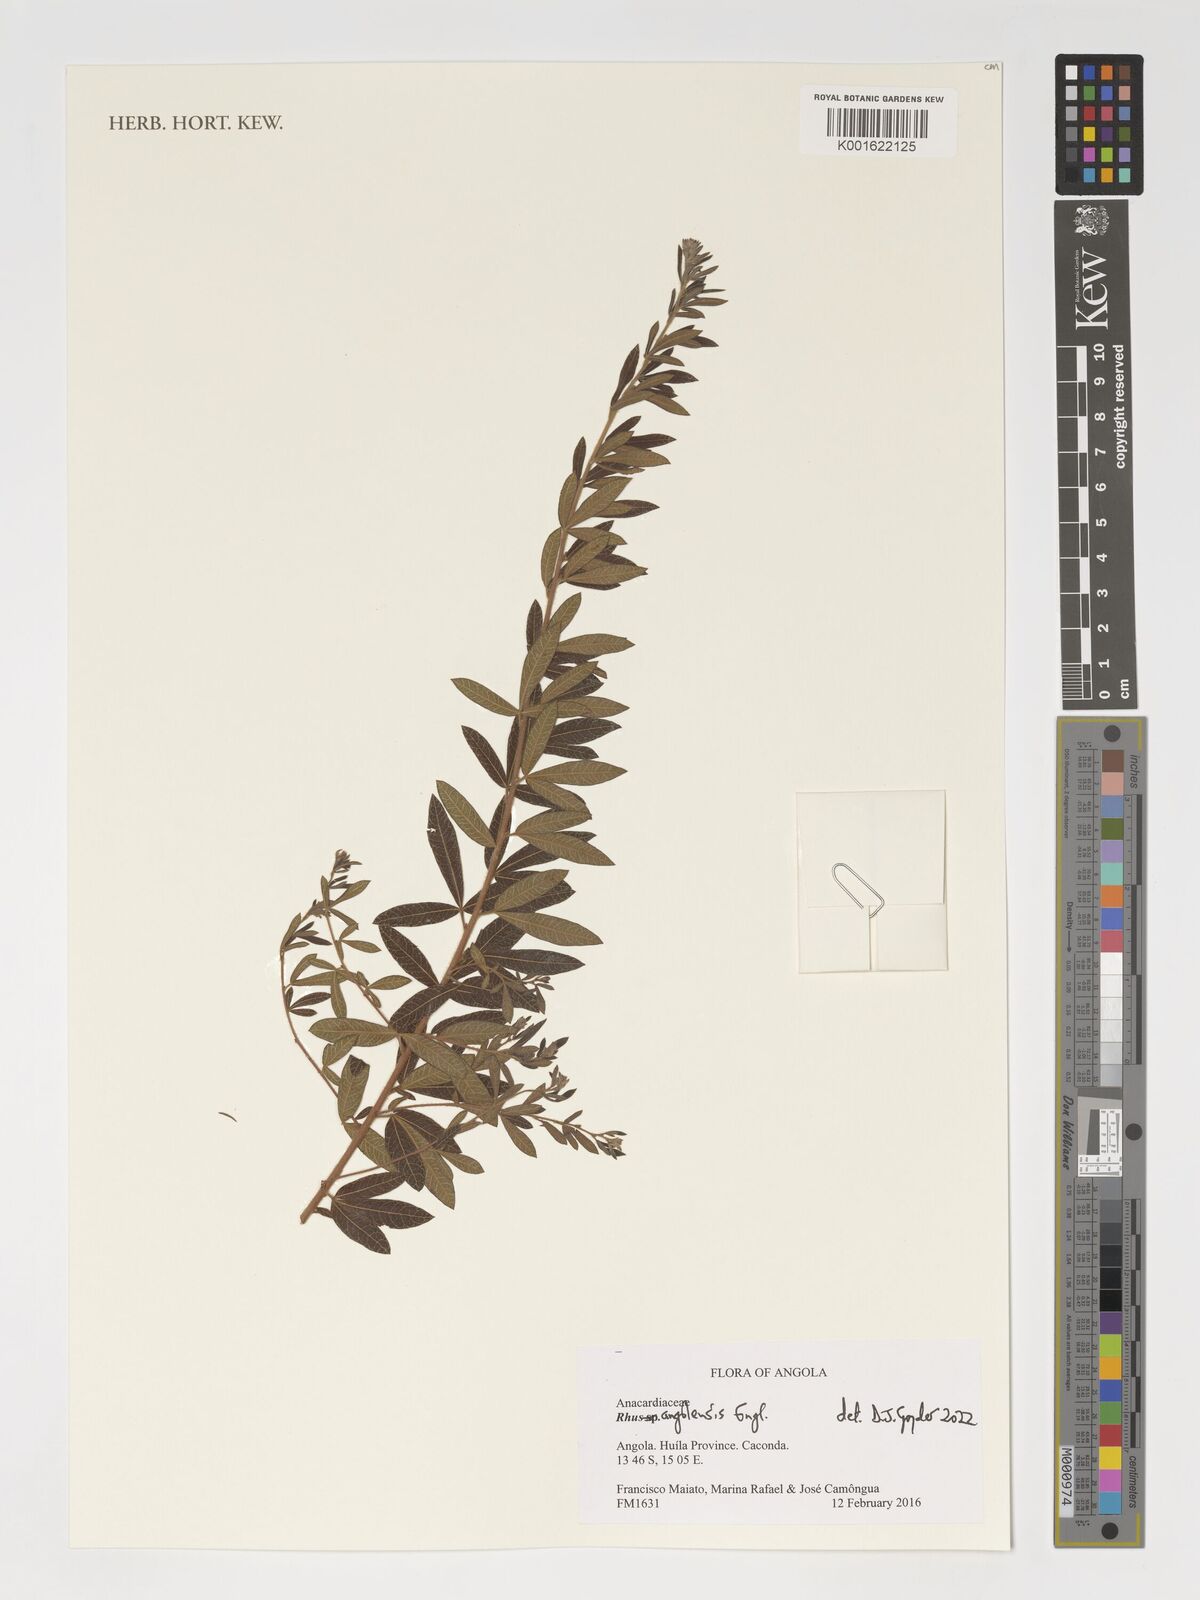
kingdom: Plantae
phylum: Tracheophyta
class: Magnoliopsida
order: Sapindales
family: Anacardiaceae
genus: Searsia
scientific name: Searsia angolensis
